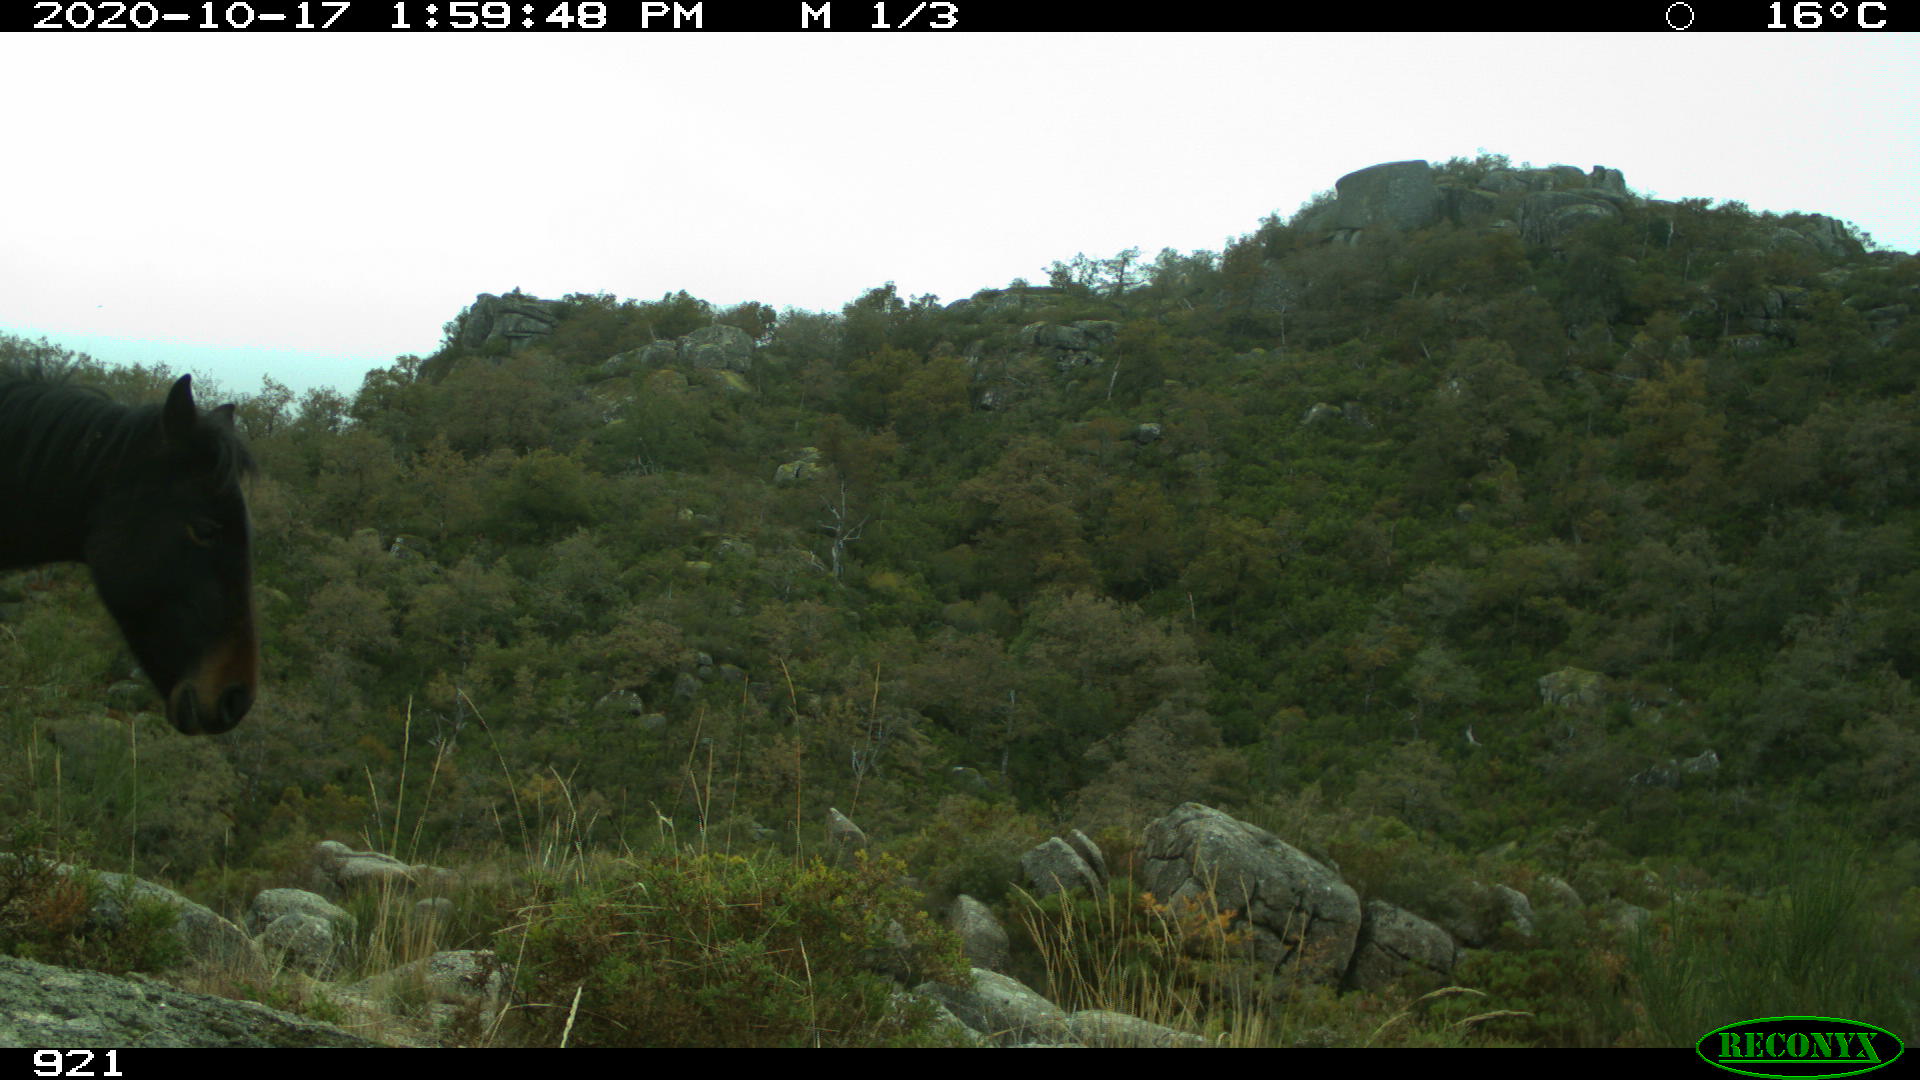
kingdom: Animalia
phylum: Chordata
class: Mammalia
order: Perissodactyla
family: Equidae
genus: Equus
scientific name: Equus caballus
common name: Horse
